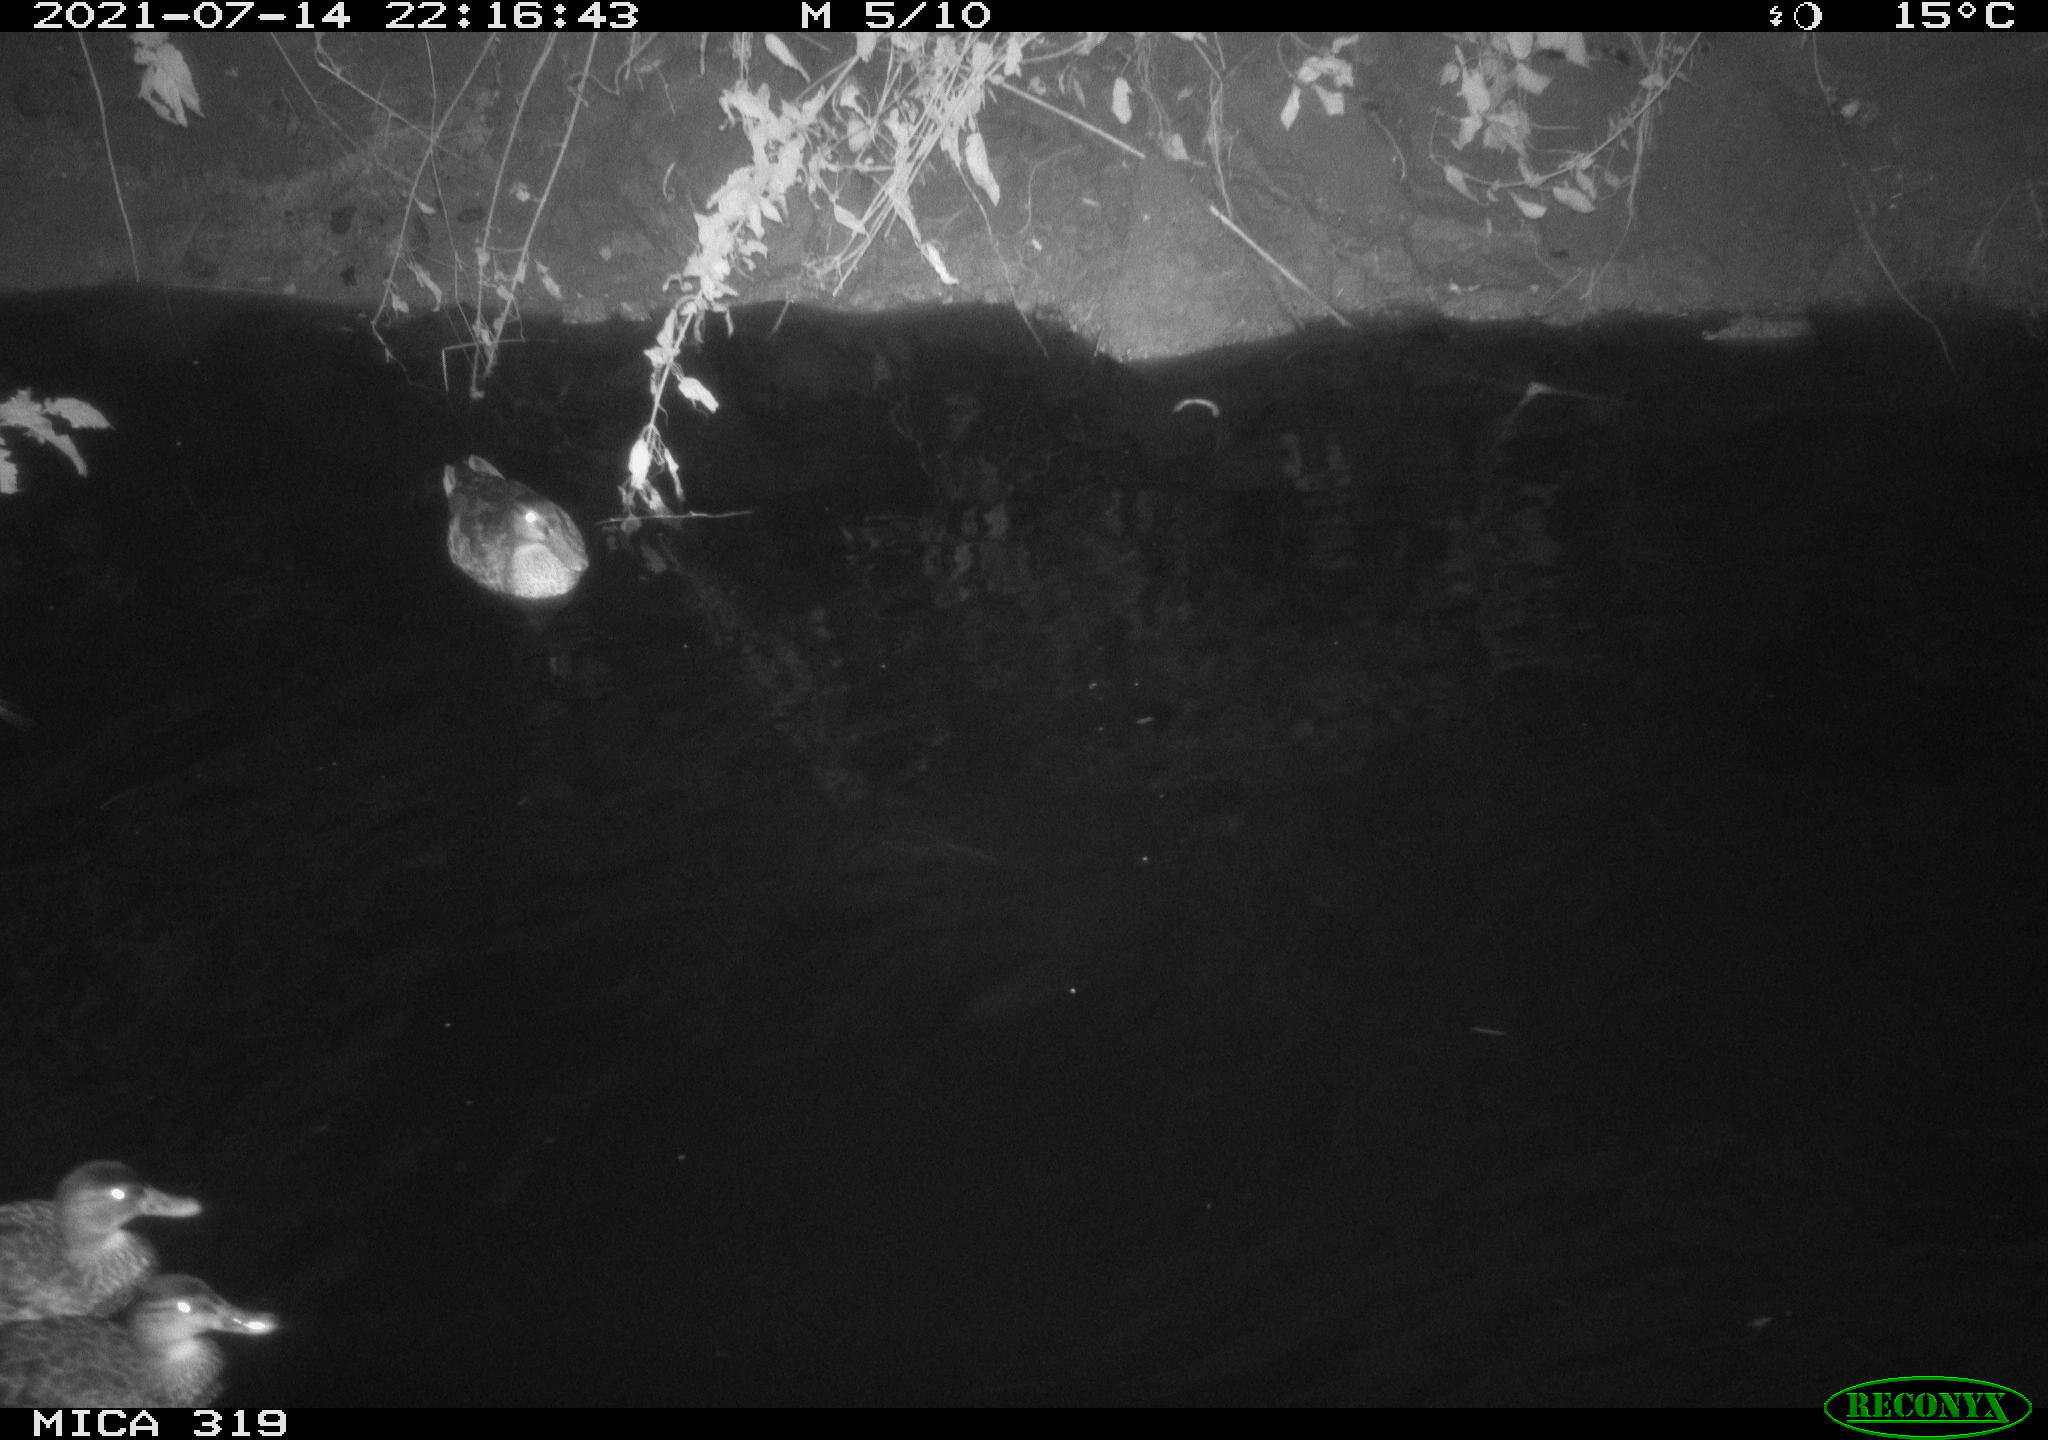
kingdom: Animalia
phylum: Chordata
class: Aves
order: Anseriformes
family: Anatidae
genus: Anas
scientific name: Anas platyrhynchos
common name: Mallard
